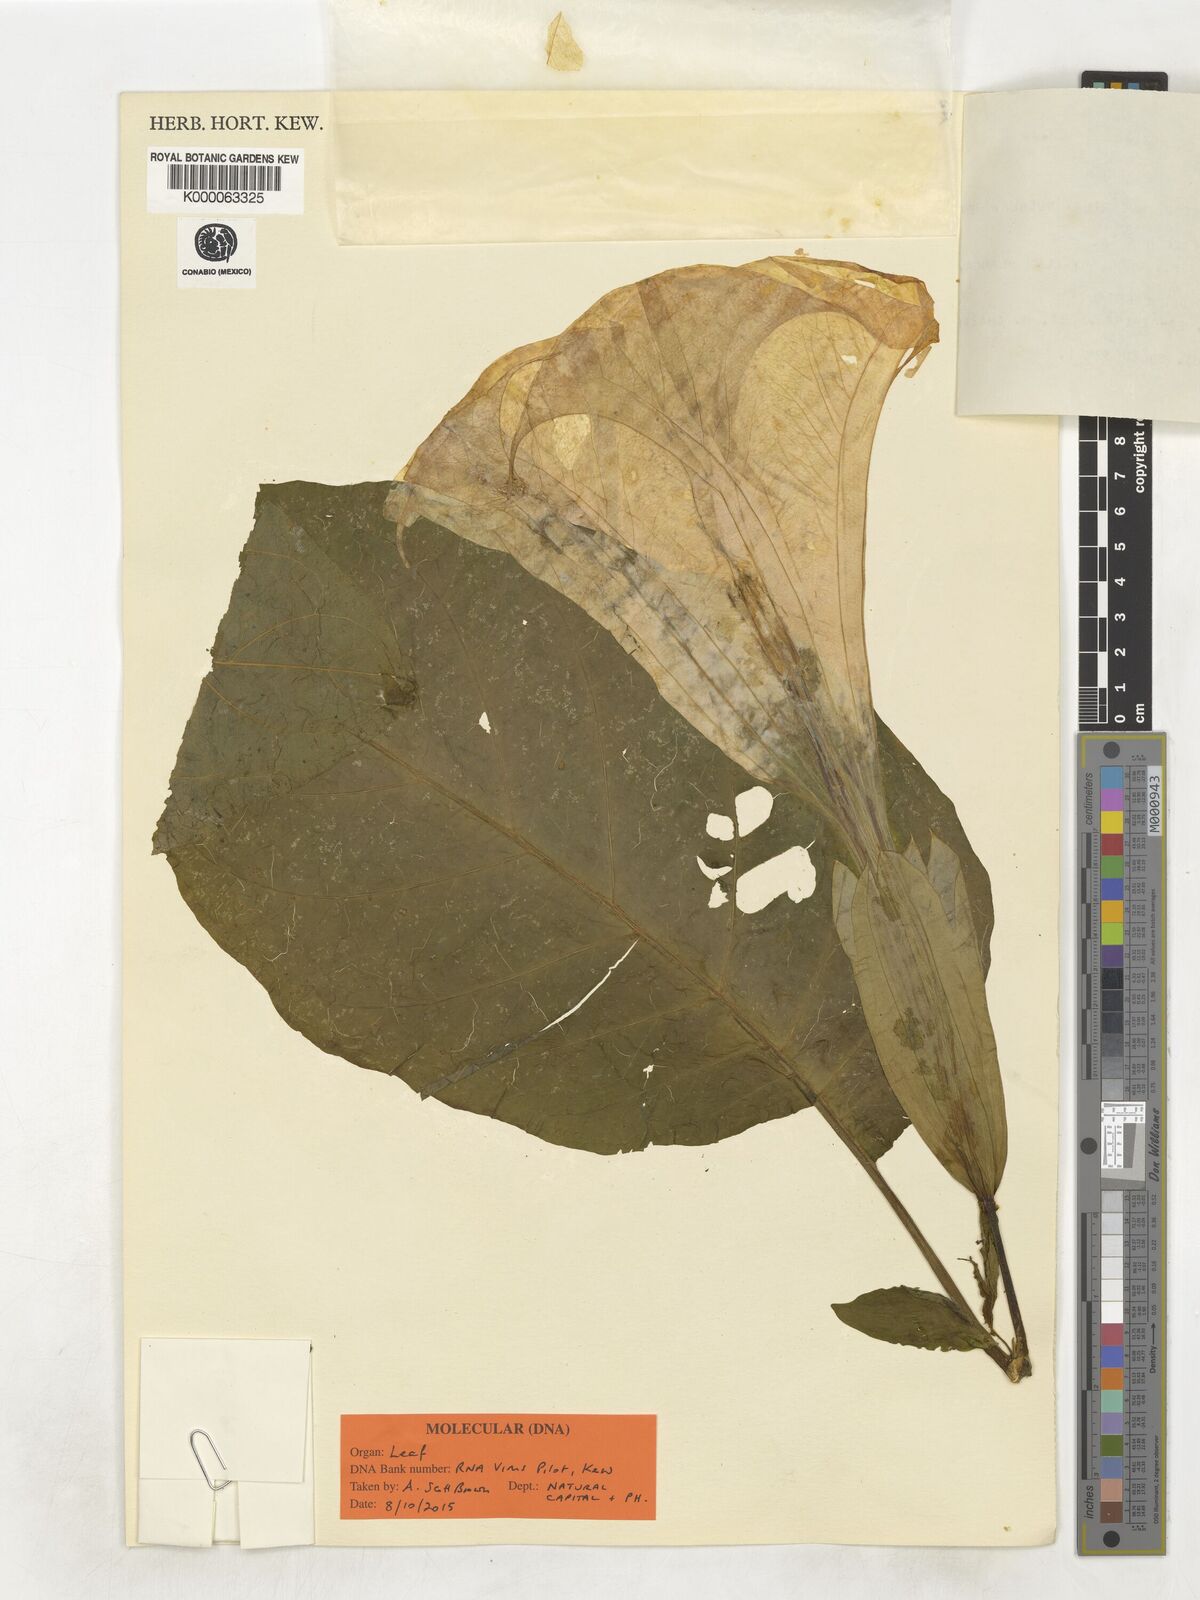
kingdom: Plantae
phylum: Tracheophyta
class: Magnoliopsida
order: Solanales
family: Solanaceae
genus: Brugmansia
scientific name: Brugmansia
